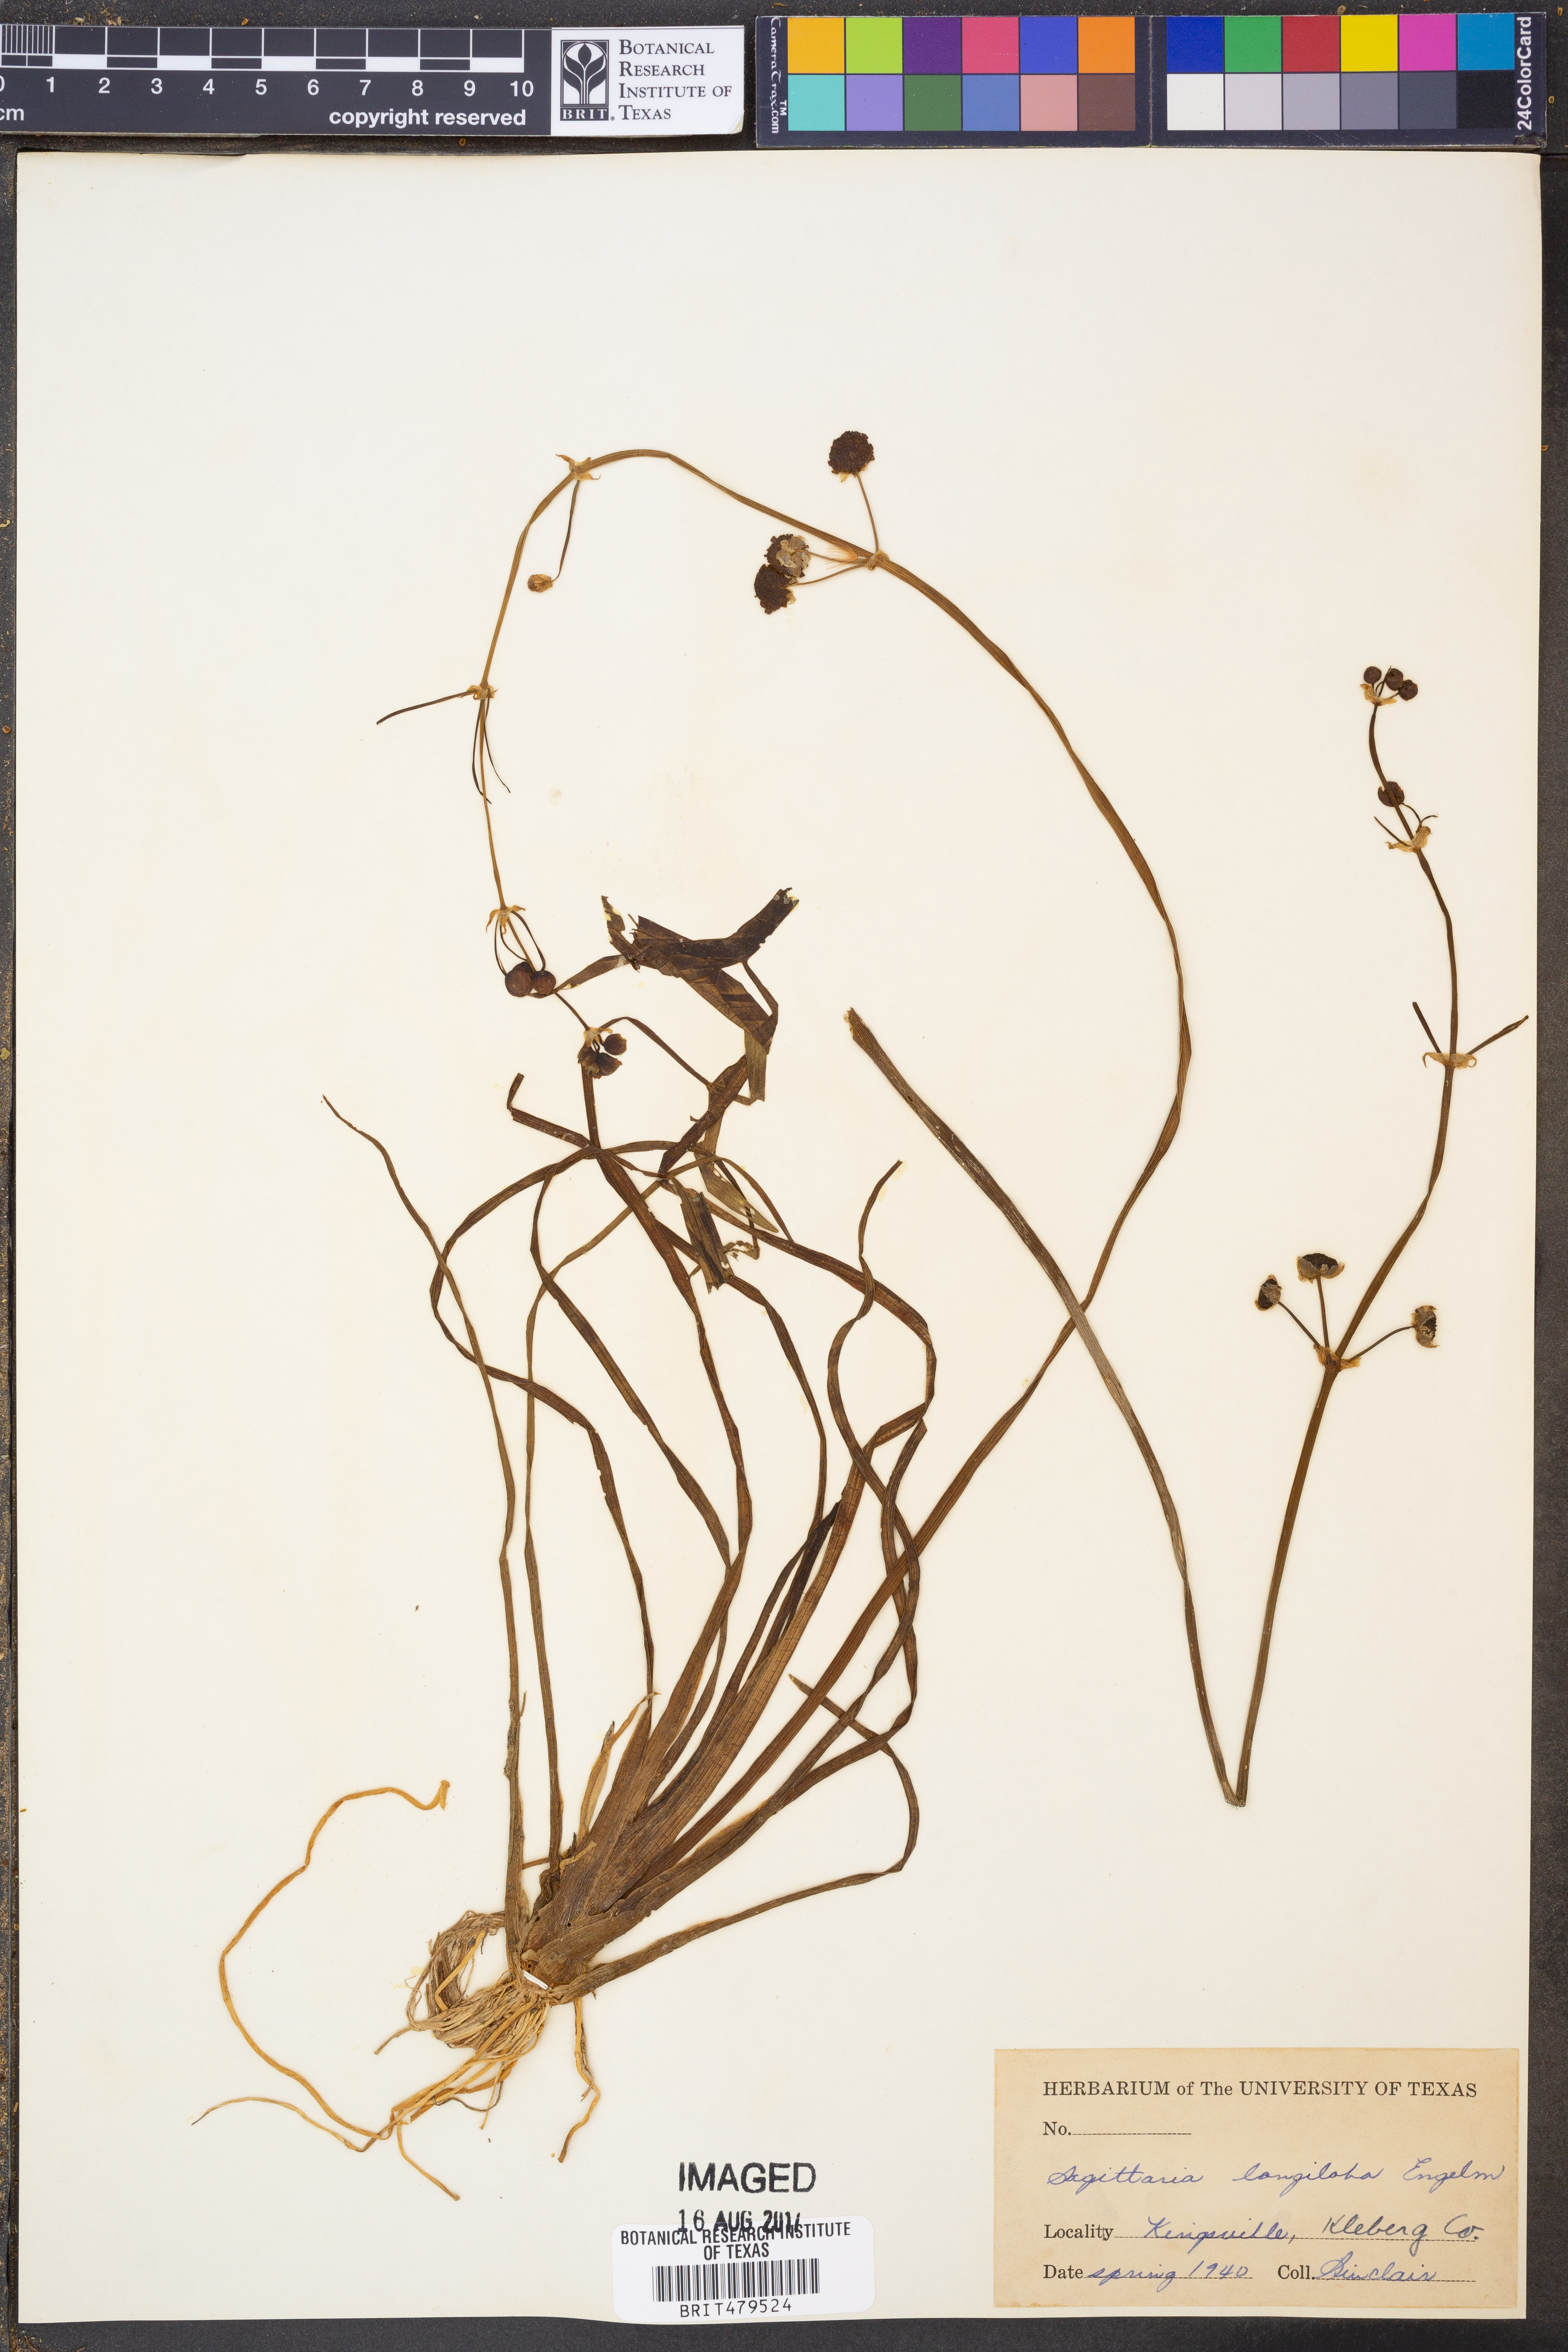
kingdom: Plantae
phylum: Tracheophyta
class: Liliopsida
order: Alismatales
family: Alismataceae
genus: Sagittaria
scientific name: Sagittaria longiloba
